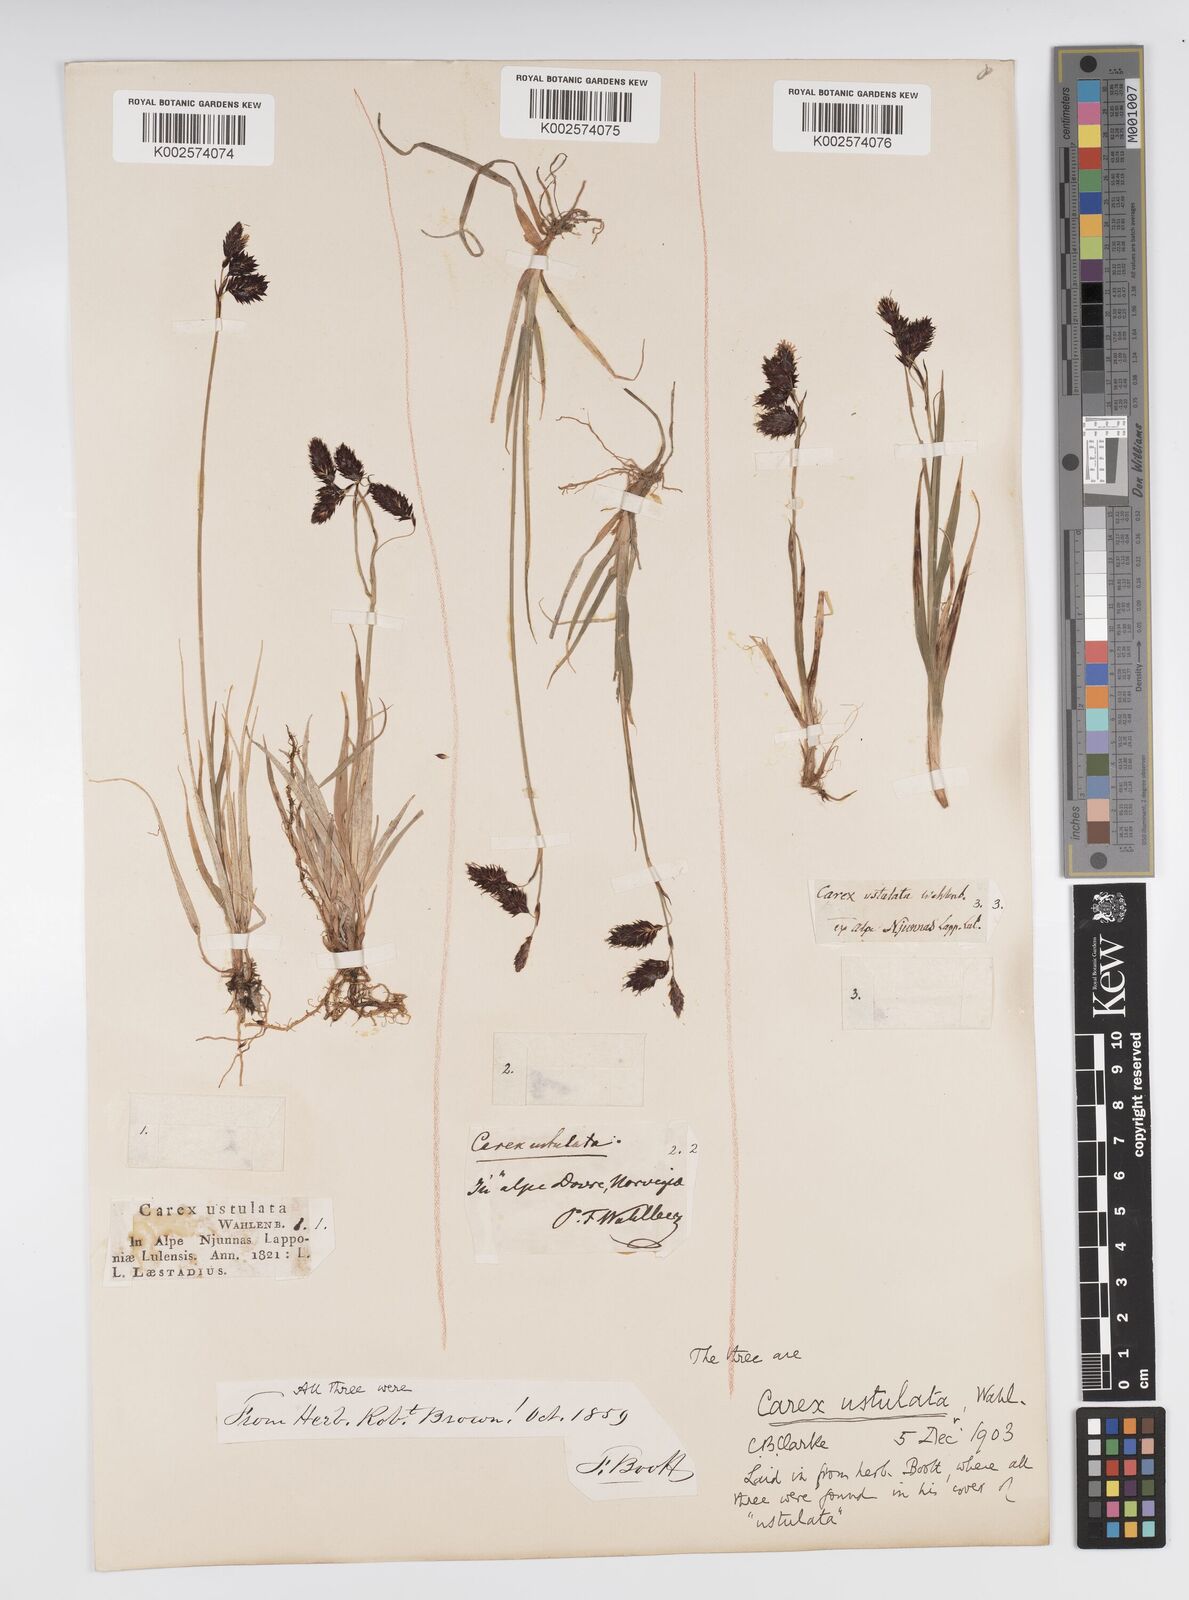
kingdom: Plantae
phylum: Tracheophyta
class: Liliopsida
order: Poales
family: Cyperaceae
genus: Carex
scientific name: Carex atrofusca
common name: Scorched alpine-sedge
